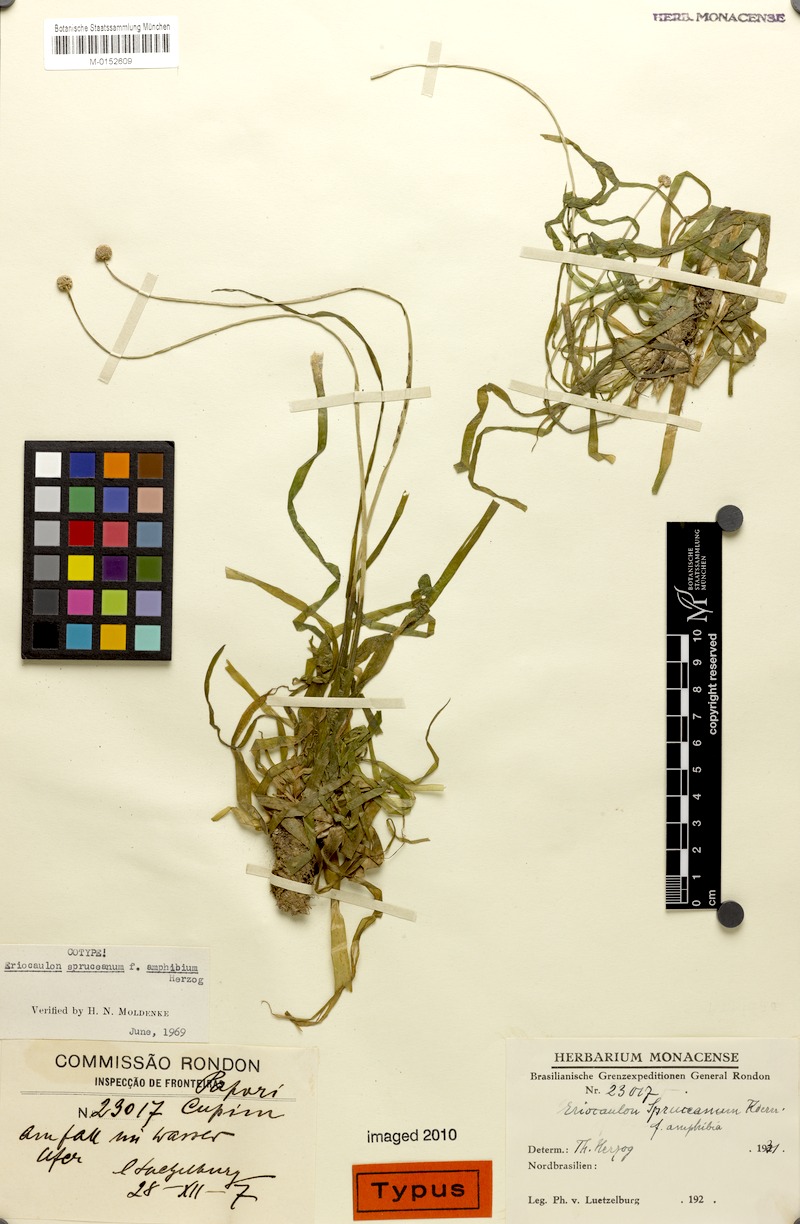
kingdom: Plantae
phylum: Tracheophyta
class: Liliopsida
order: Poales
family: Eriocaulaceae
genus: Eriocaulon
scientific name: Eriocaulon spruceanum
